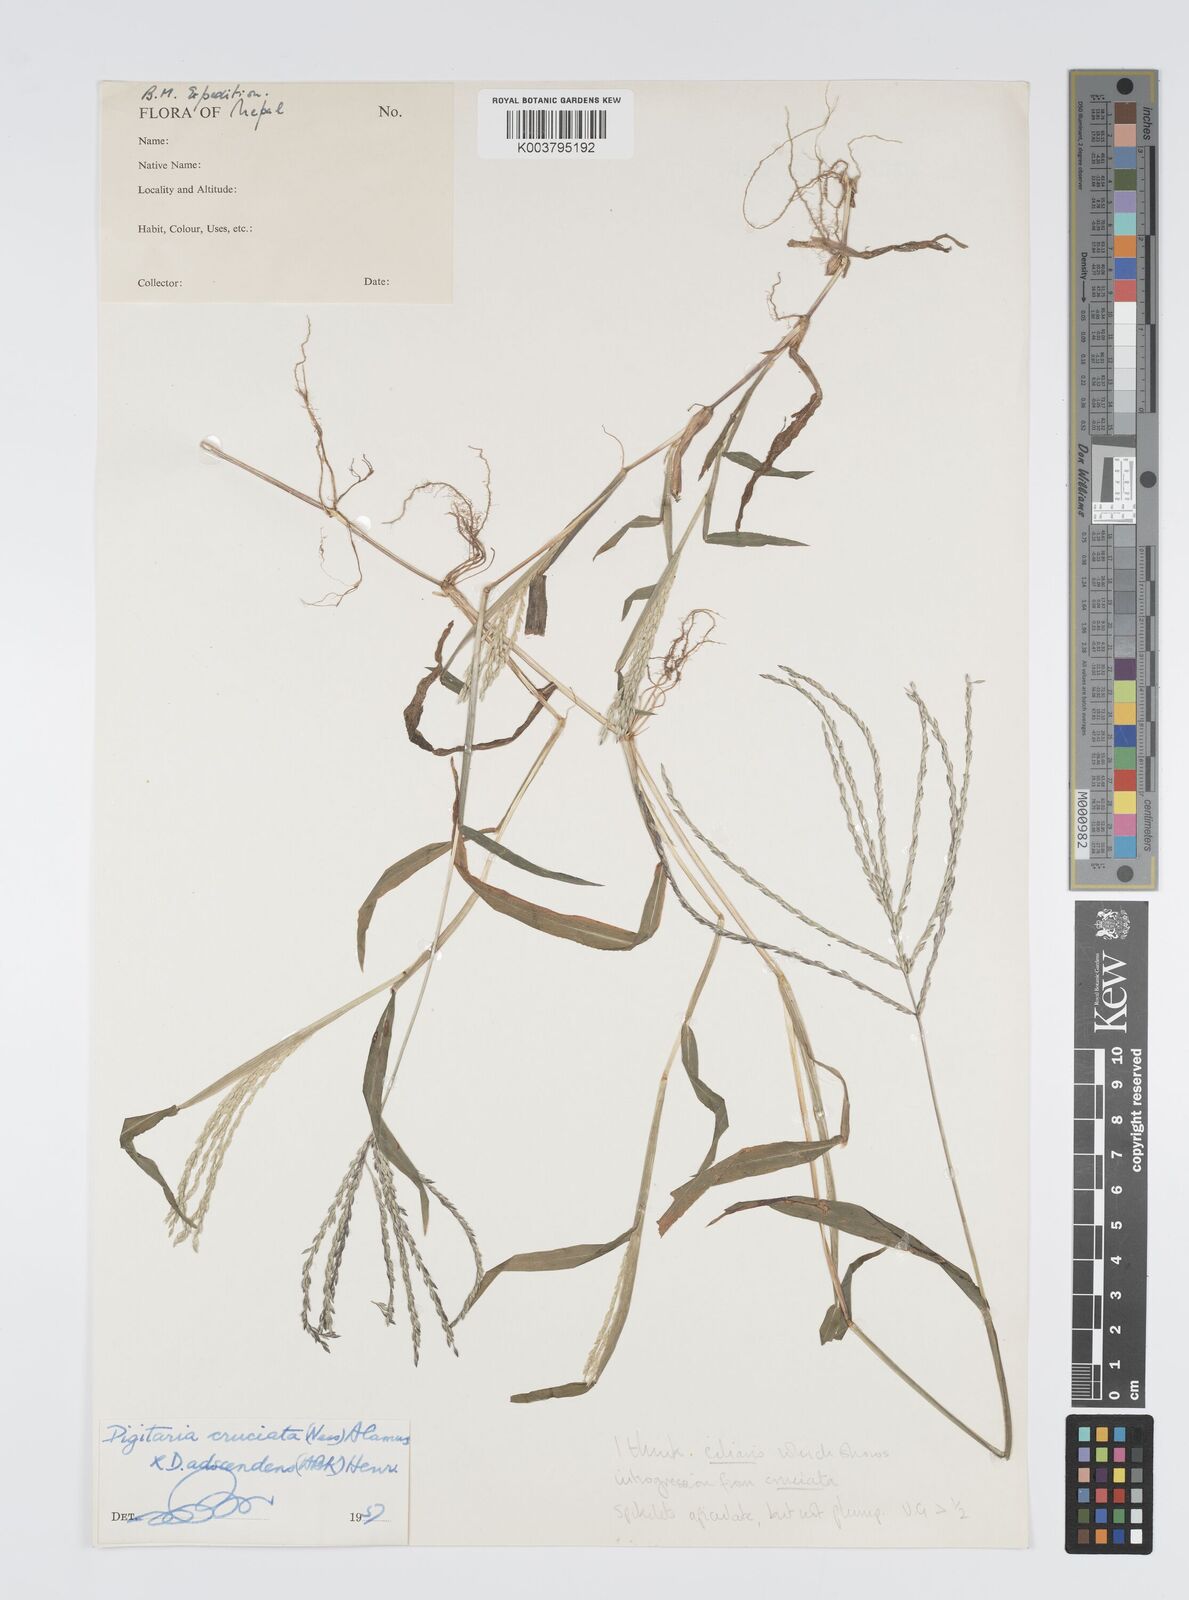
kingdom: Plantae
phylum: Tracheophyta
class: Liliopsida
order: Poales
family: Poaceae
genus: Digitaria
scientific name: Digitaria ciliaris
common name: Tropical finger-grass
